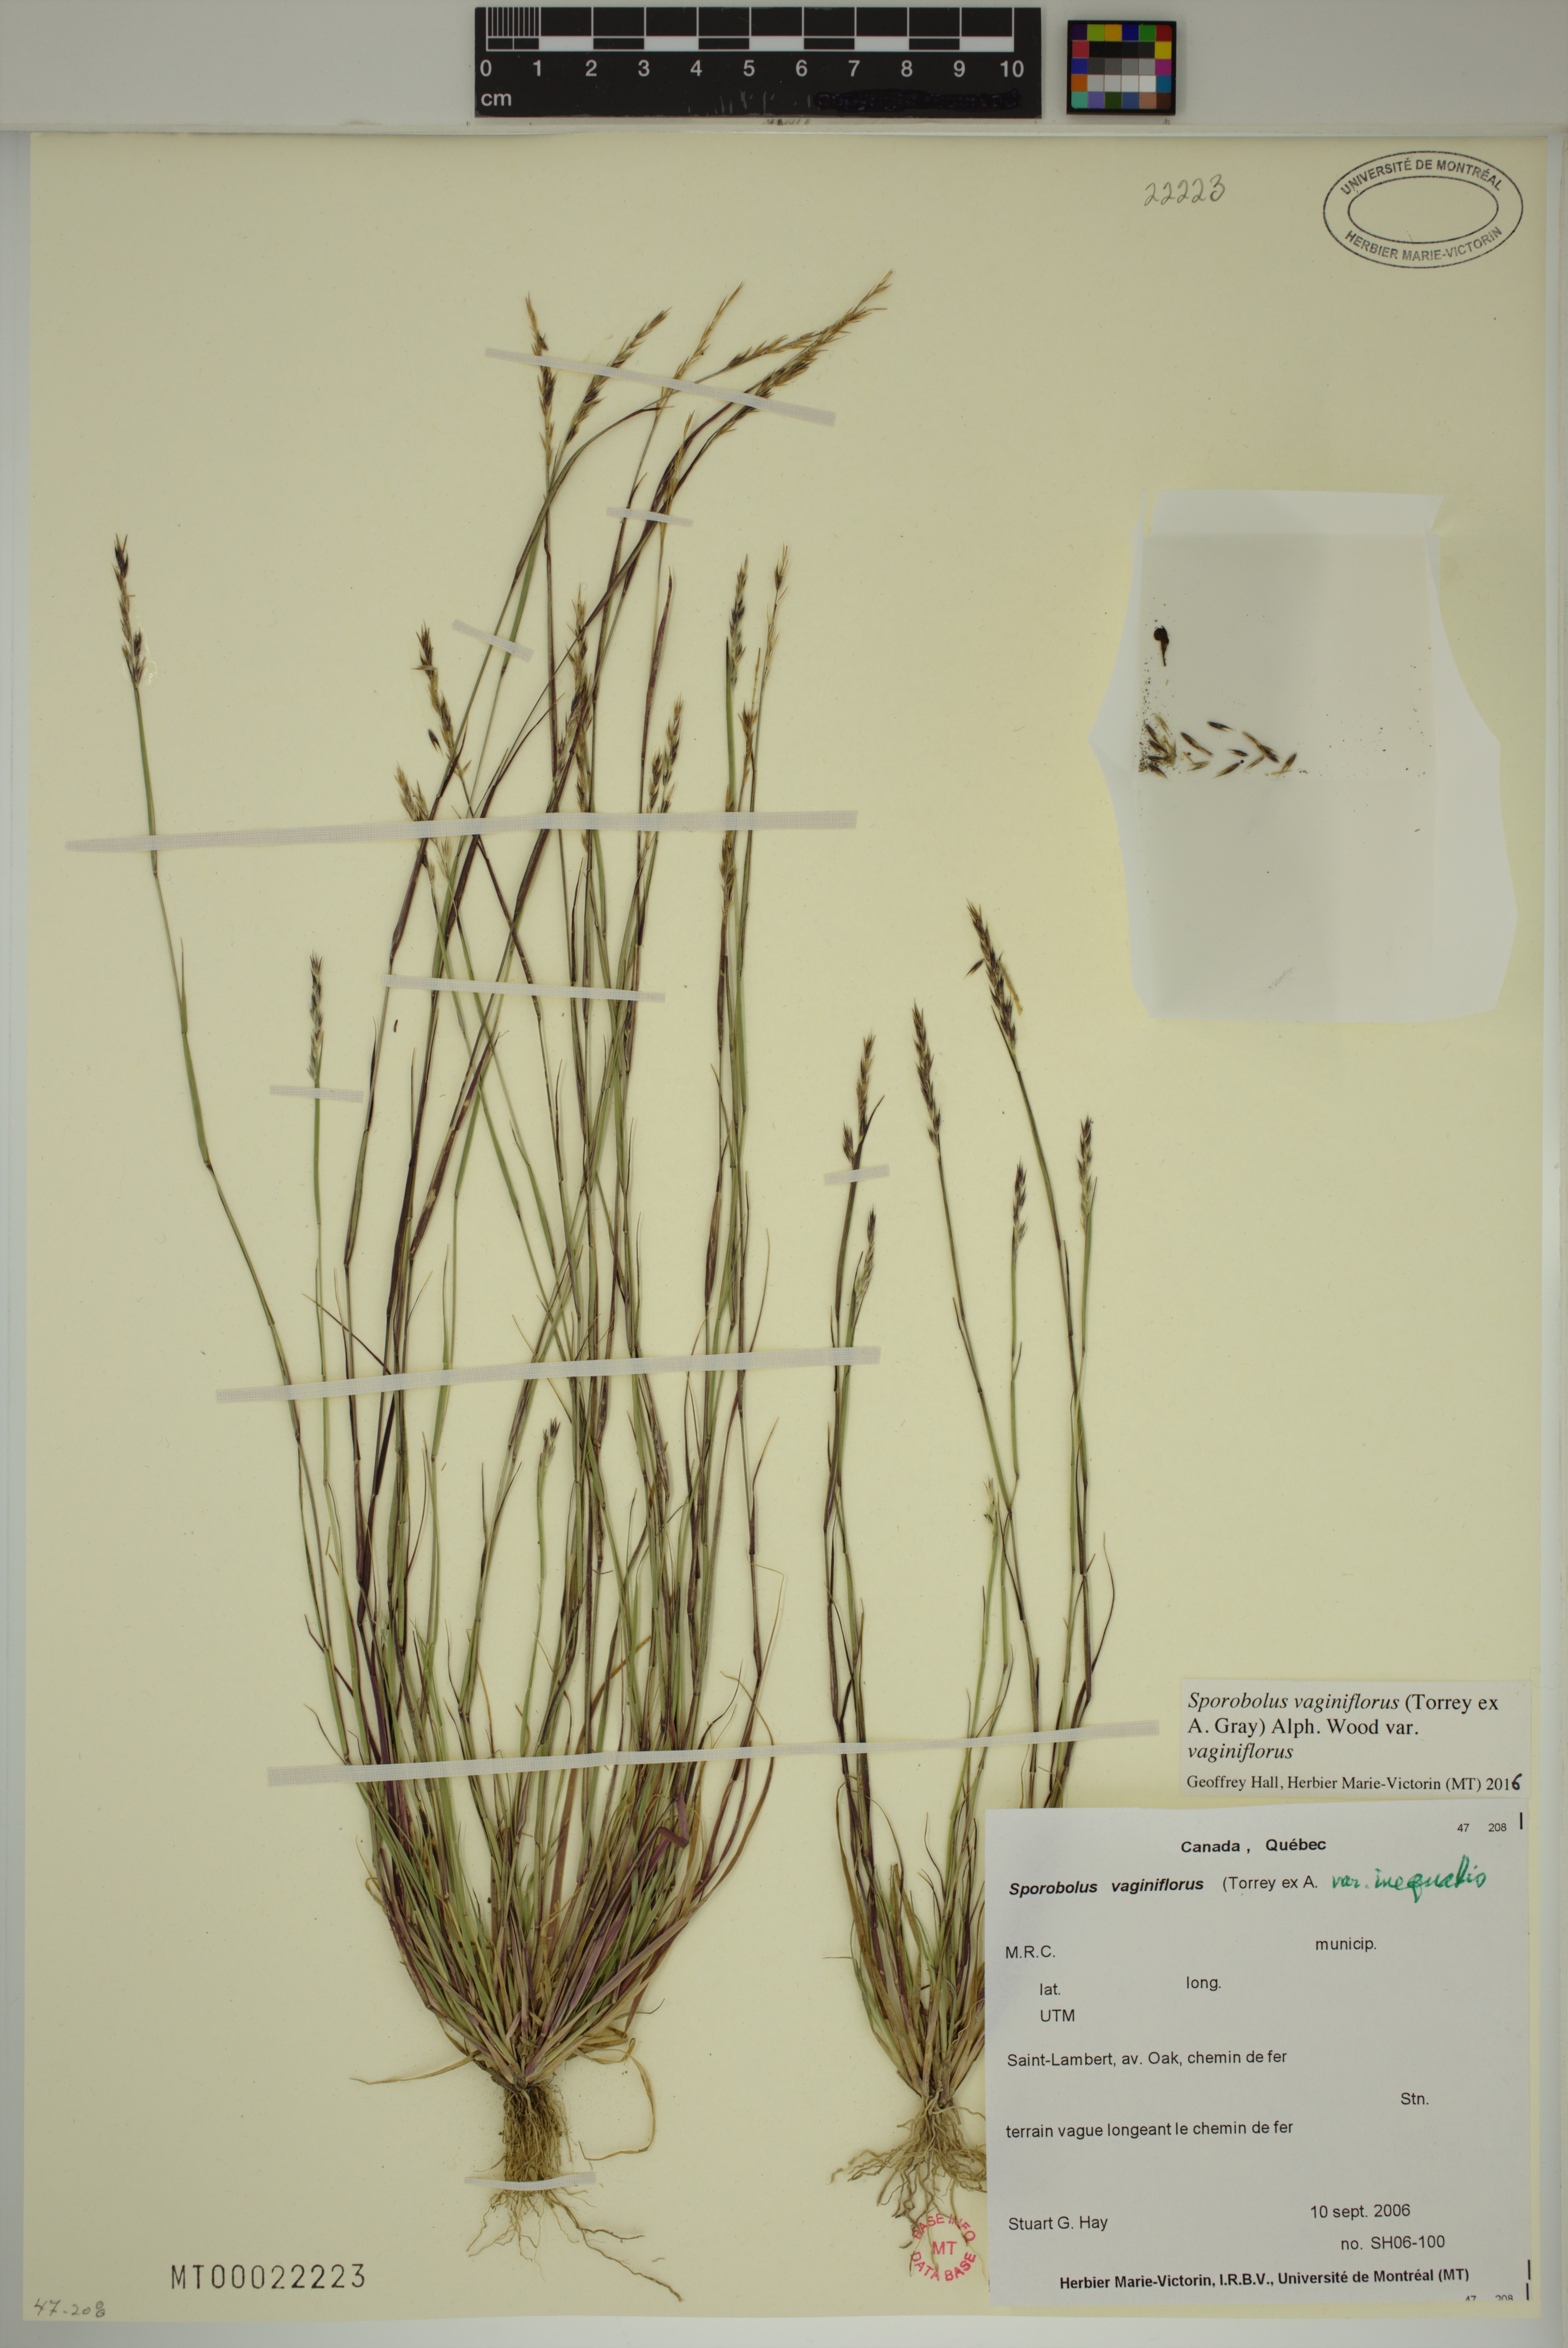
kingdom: Plantae
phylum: Tracheophyta
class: Liliopsida
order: Poales
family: Poaceae
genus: Sporobolus
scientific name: Sporobolus vaginiflorus
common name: Poverty dropseed
